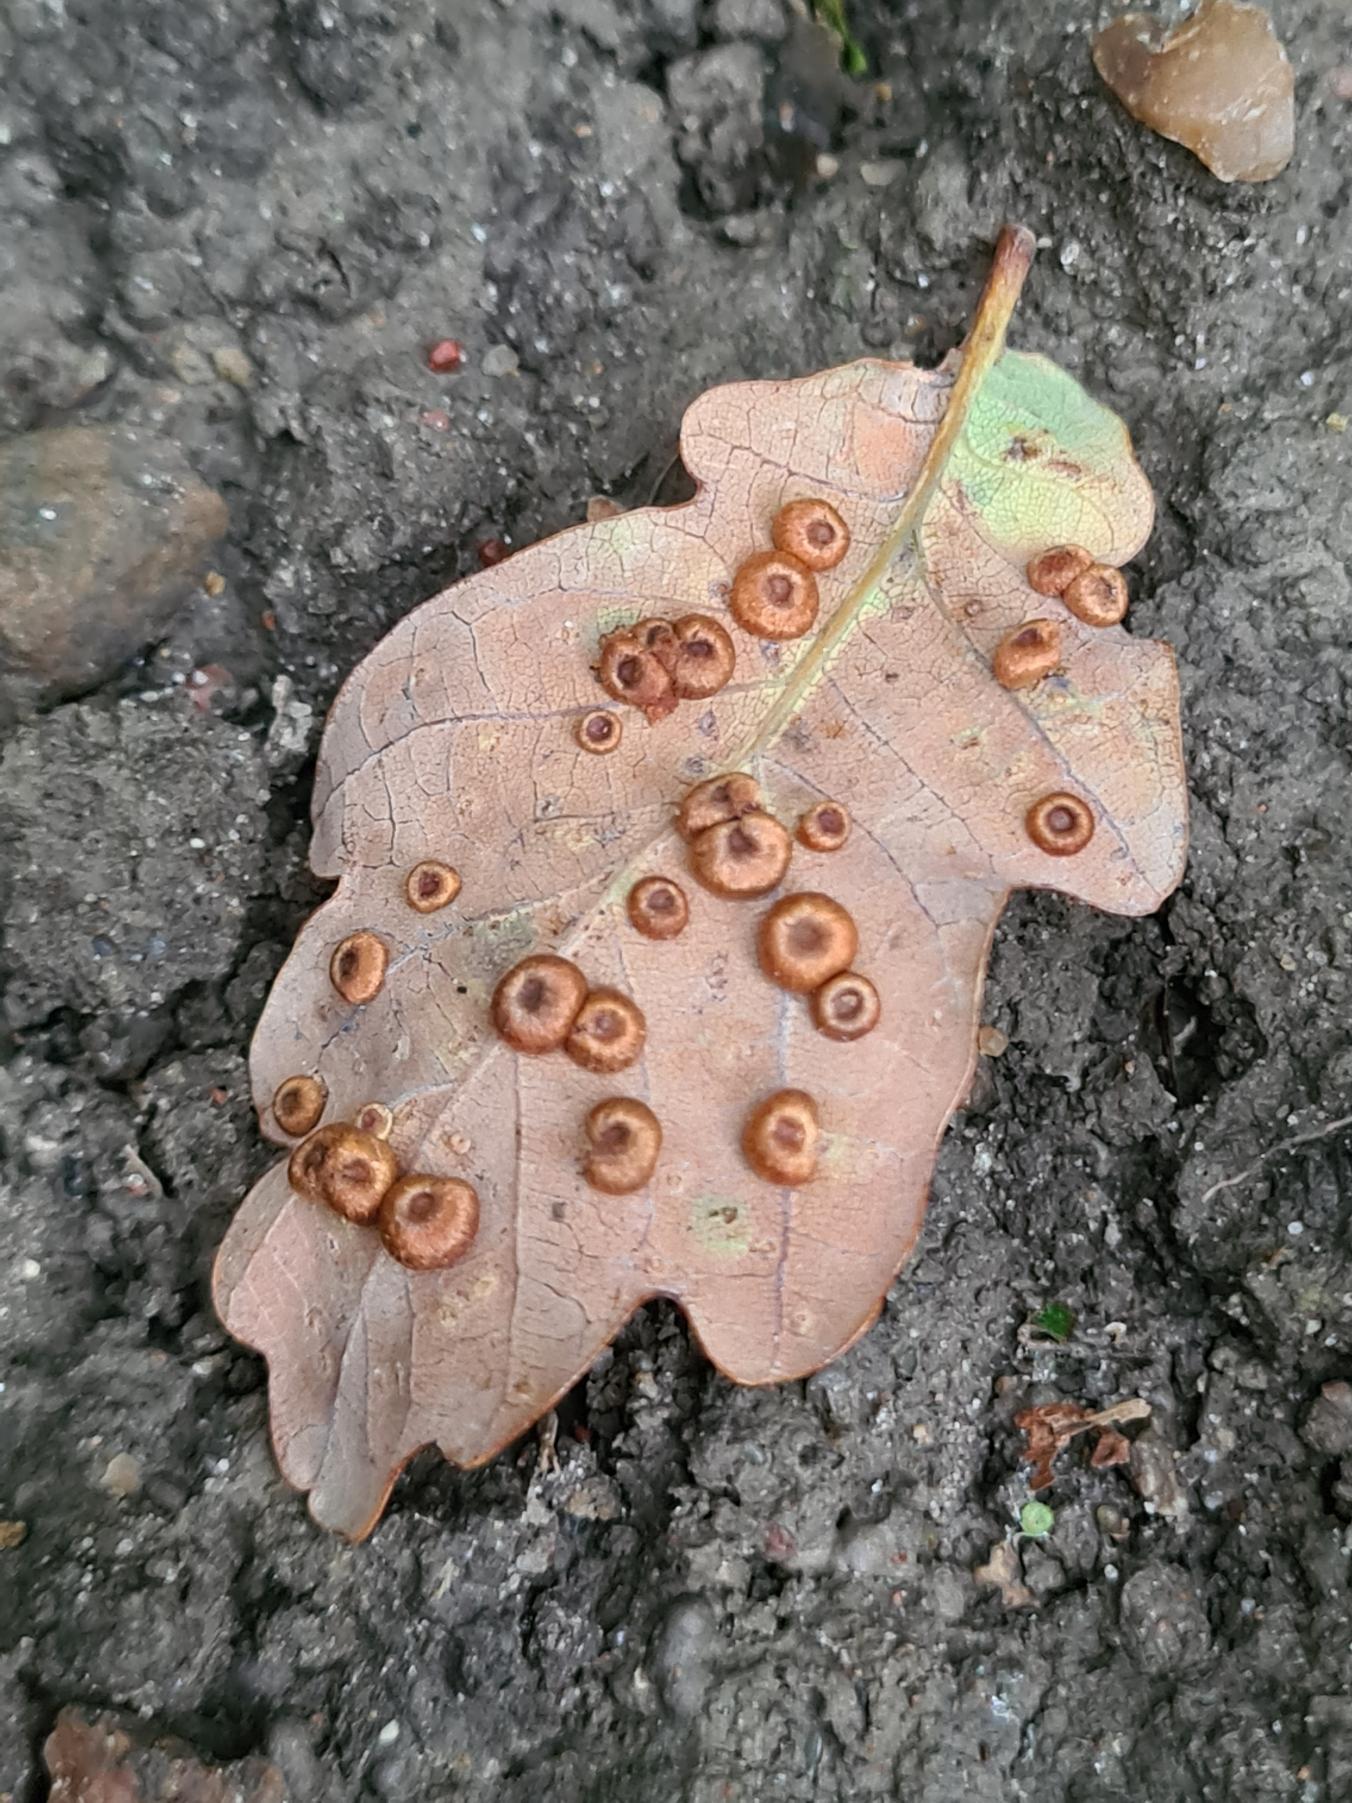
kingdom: Animalia
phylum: Arthropoda
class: Insecta
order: Hymenoptera
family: Cynipidae
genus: Neuroterus
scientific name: Neuroterus numismalis
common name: Knapgalhveps
